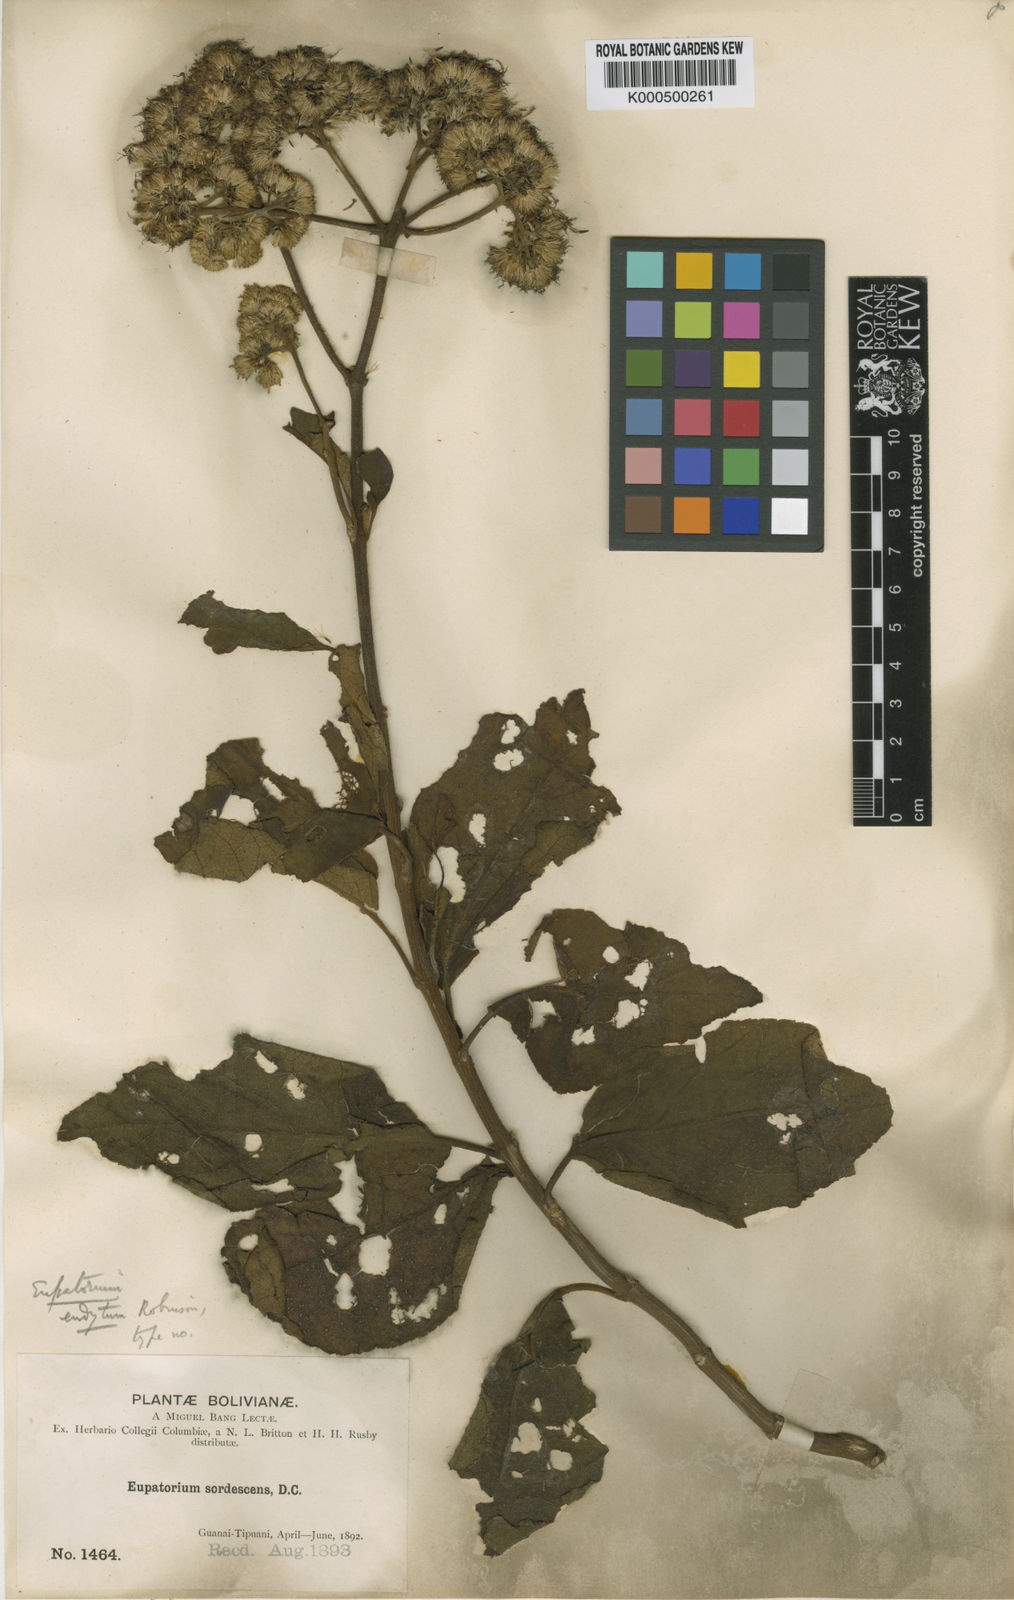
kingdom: Plantae
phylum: Tracheophyta
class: Magnoliopsida
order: Asterales
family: Asteraceae
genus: Kaunia
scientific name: Kaunia endyta
